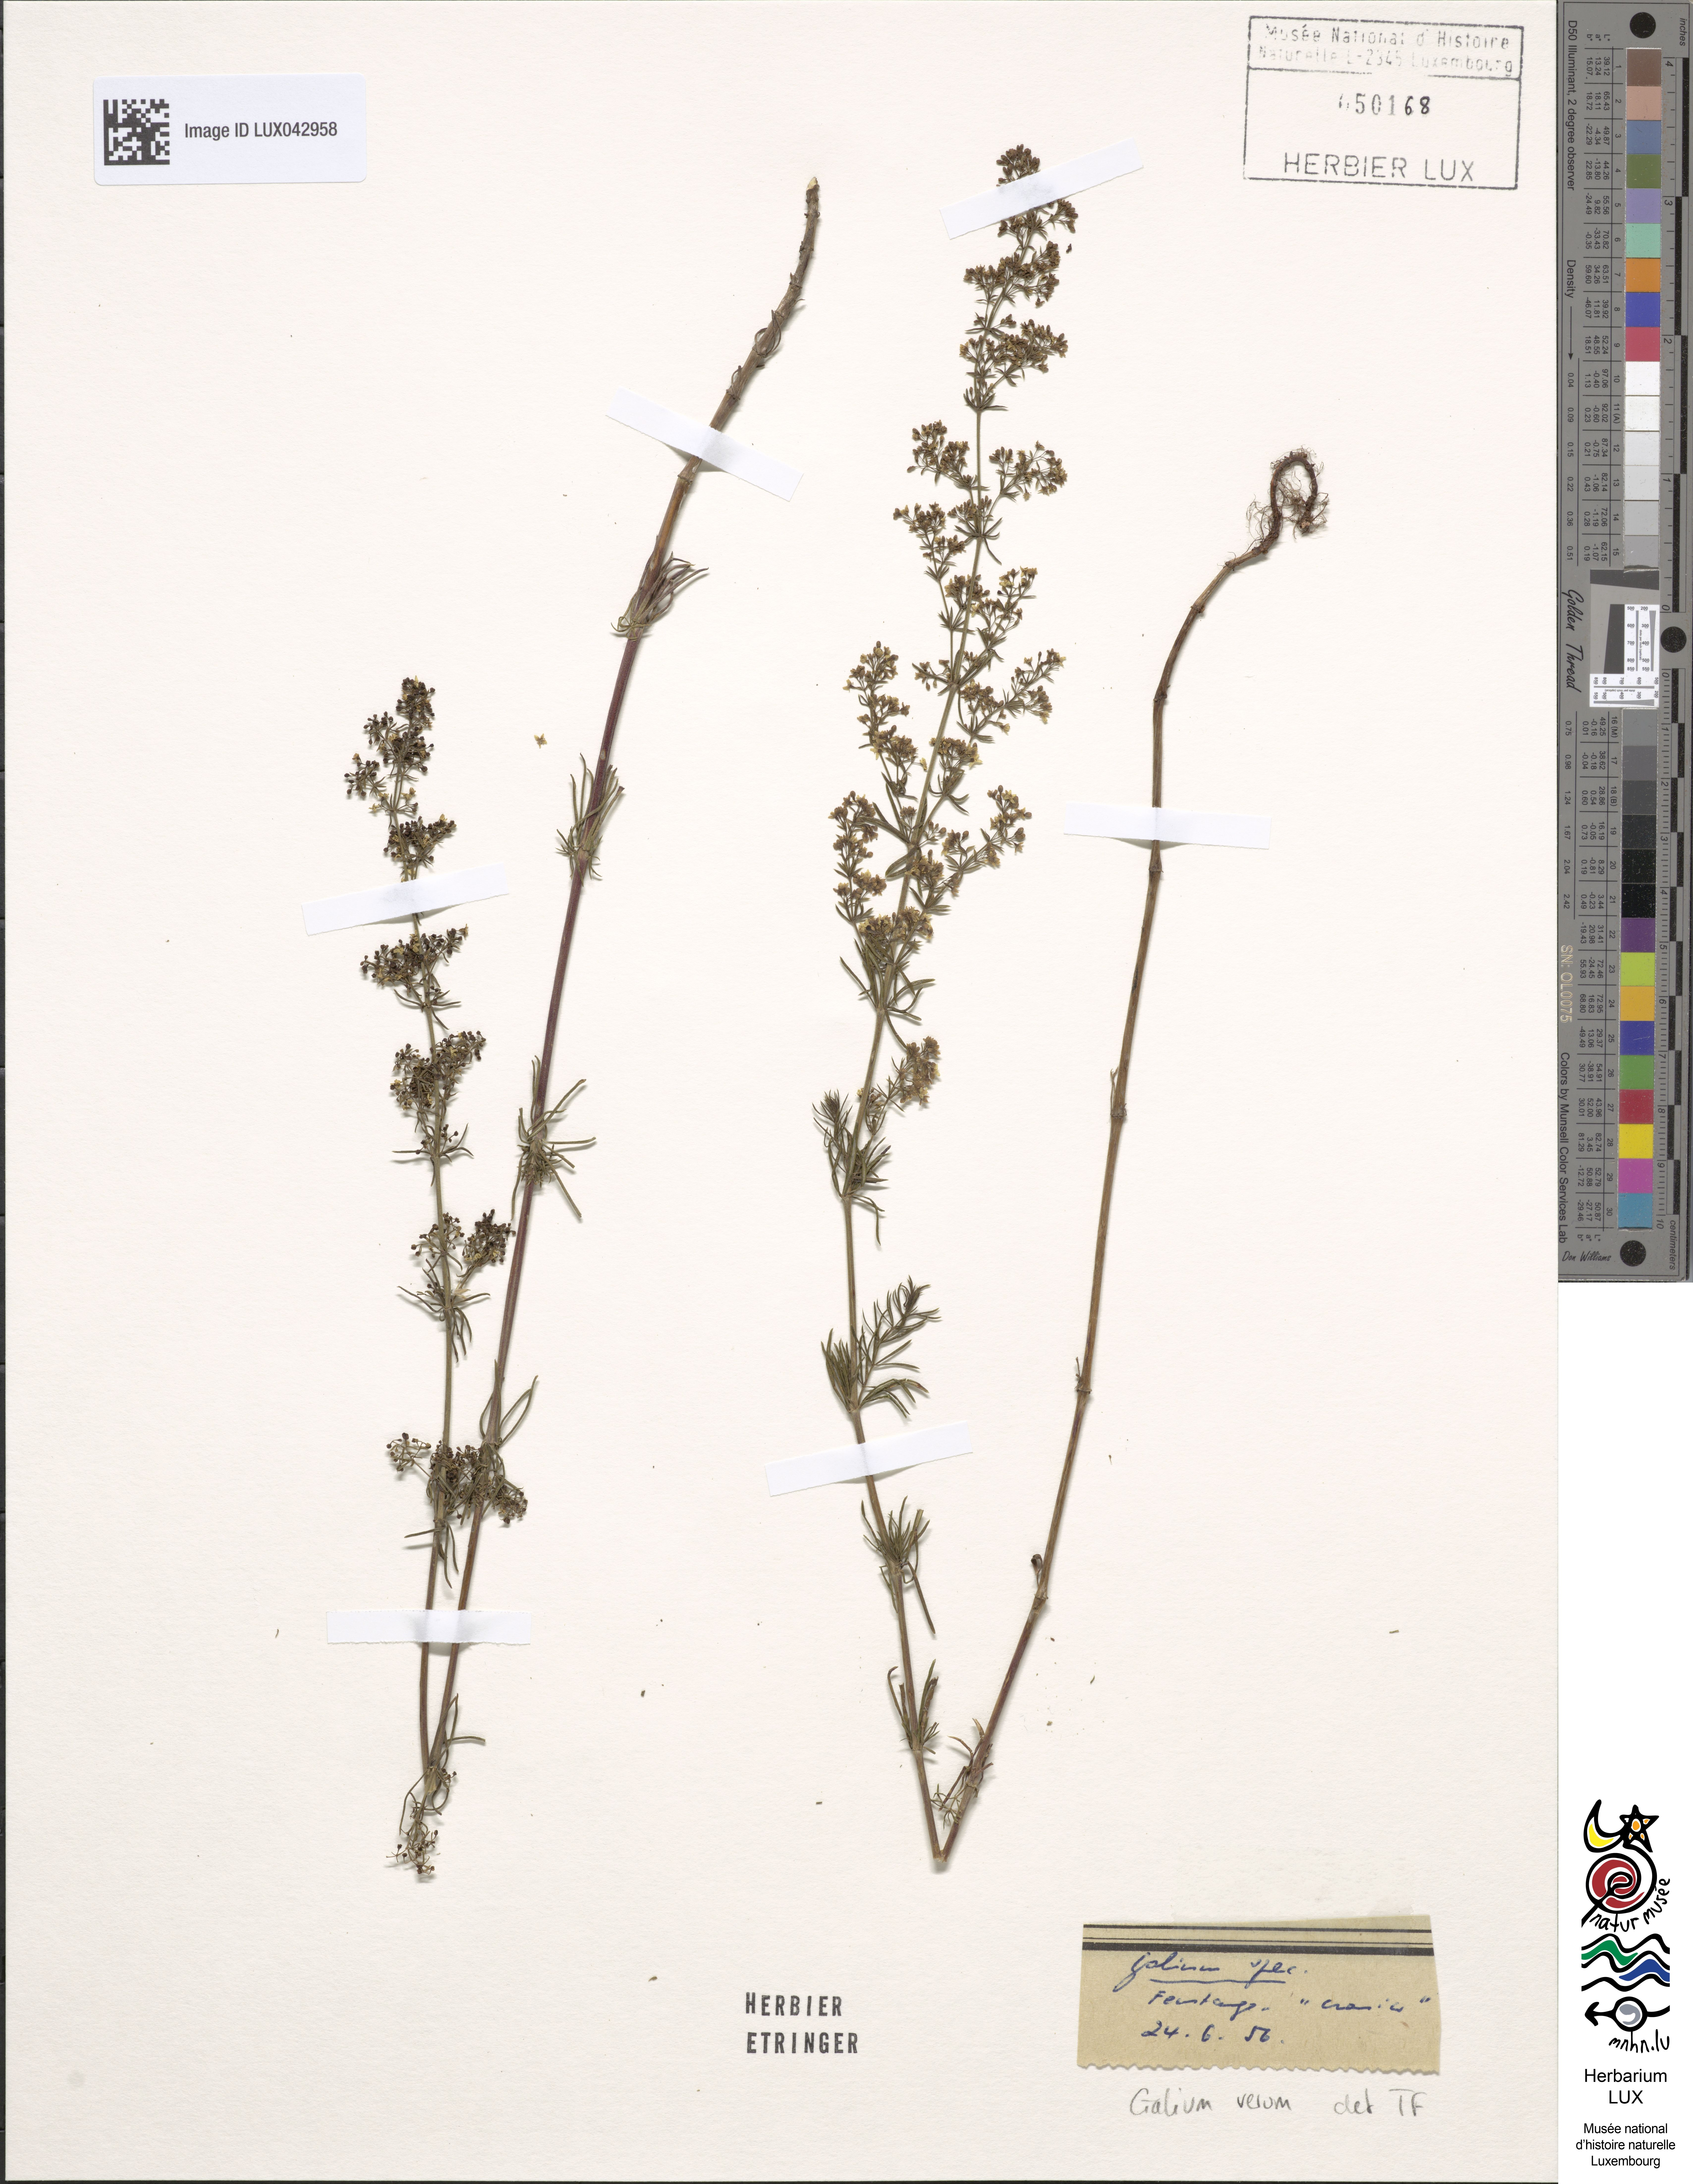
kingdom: Plantae
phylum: Tracheophyta
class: Magnoliopsida
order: Gentianales
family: Rubiaceae
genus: Galium
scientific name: Galium verum
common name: Lady's bedstraw
